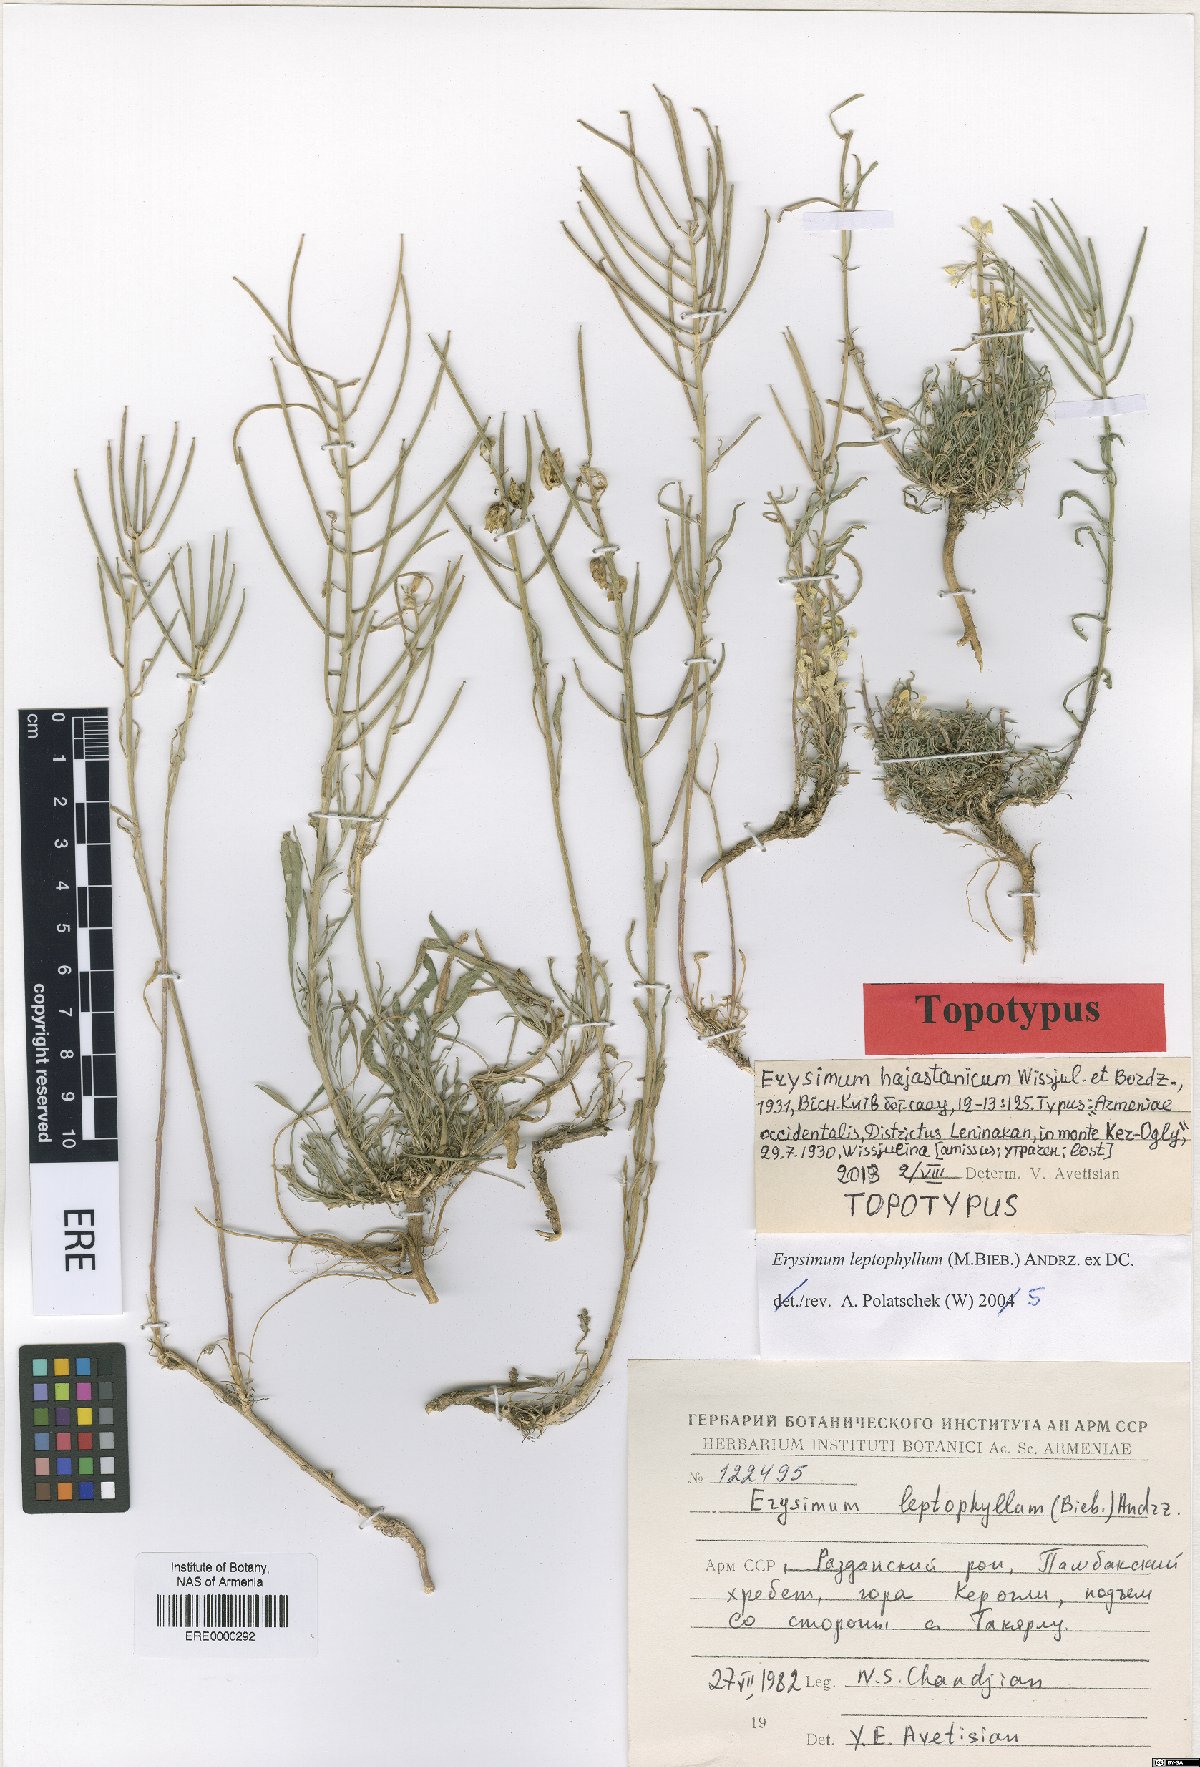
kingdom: Plantae
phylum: Tracheophyta
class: Magnoliopsida
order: Brassicales
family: Brassicaceae
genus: Erysimum
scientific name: Erysimum hajastanicum
